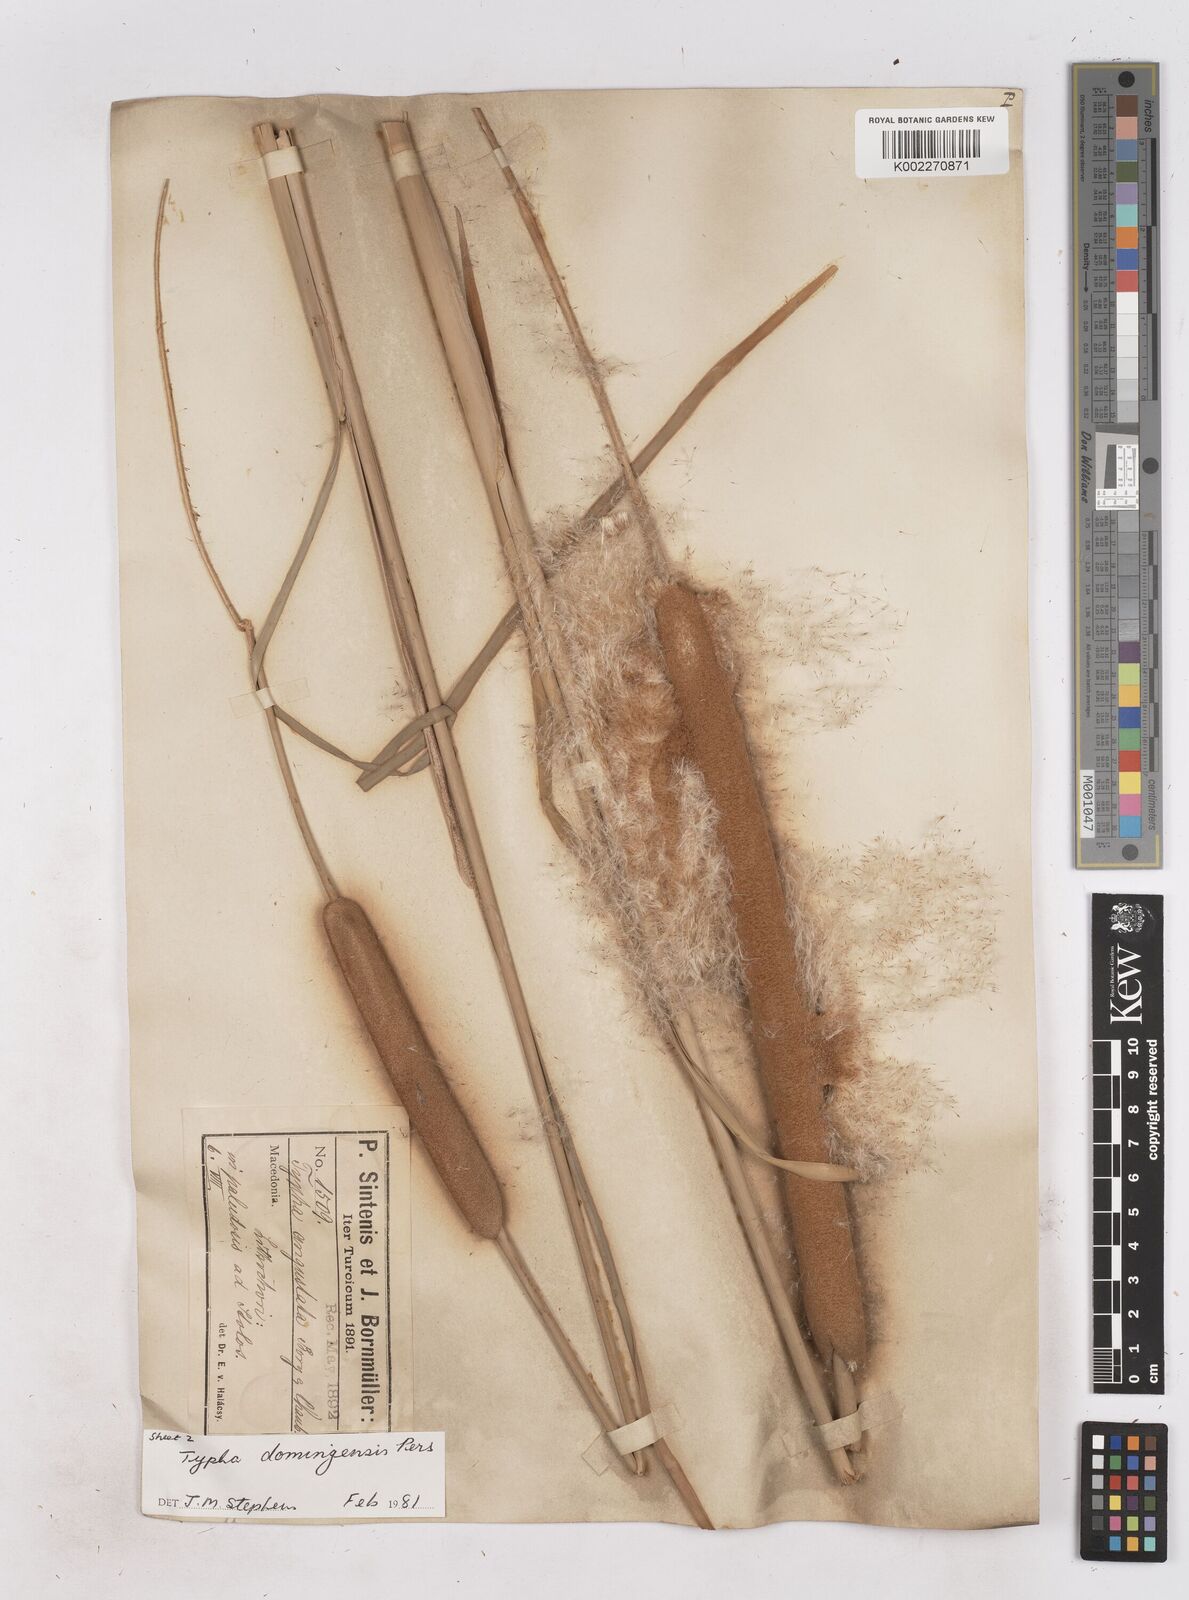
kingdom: Plantae
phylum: Tracheophyta
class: Liliopsida
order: Poales
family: Typhaceae
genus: Typha
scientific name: Typha domingensis
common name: Southern cattail
